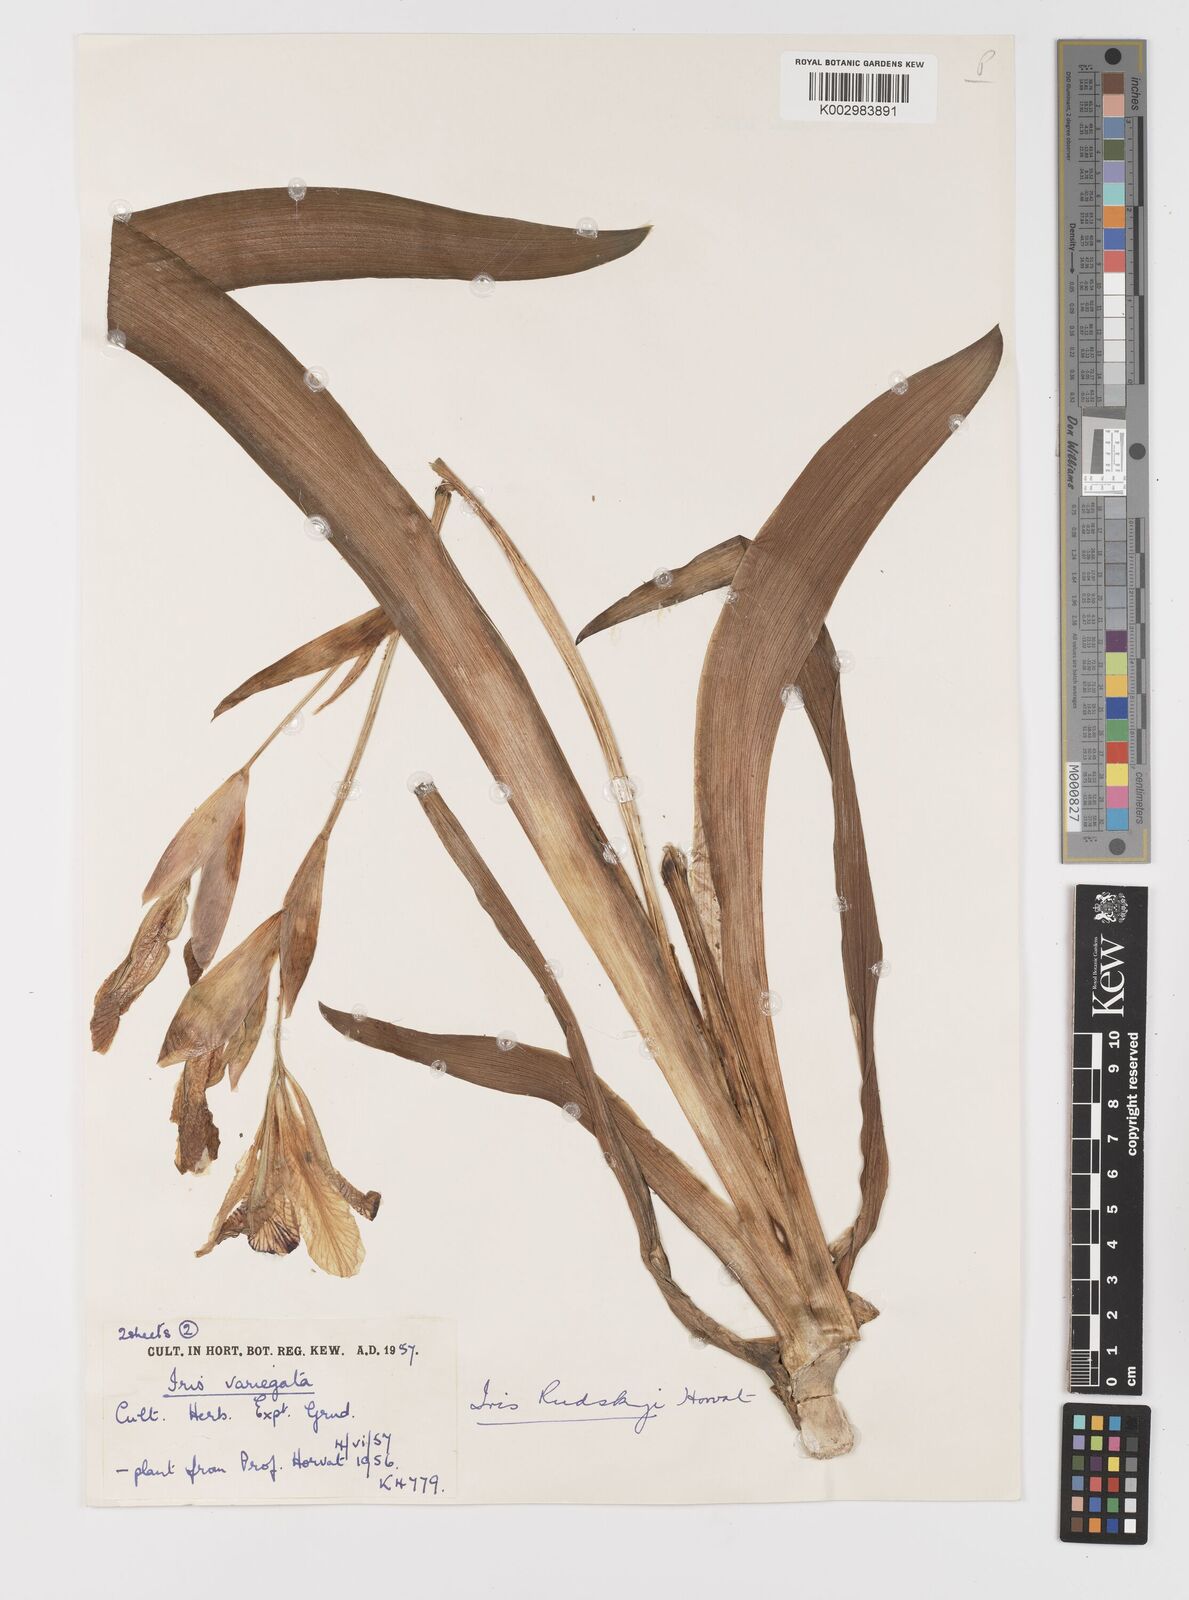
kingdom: Plantae
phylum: Tracheophyta
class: Liliopsida
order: Asparagales
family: Iridaceae
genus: Iris
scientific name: Iris variegata
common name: Hungarian iris
